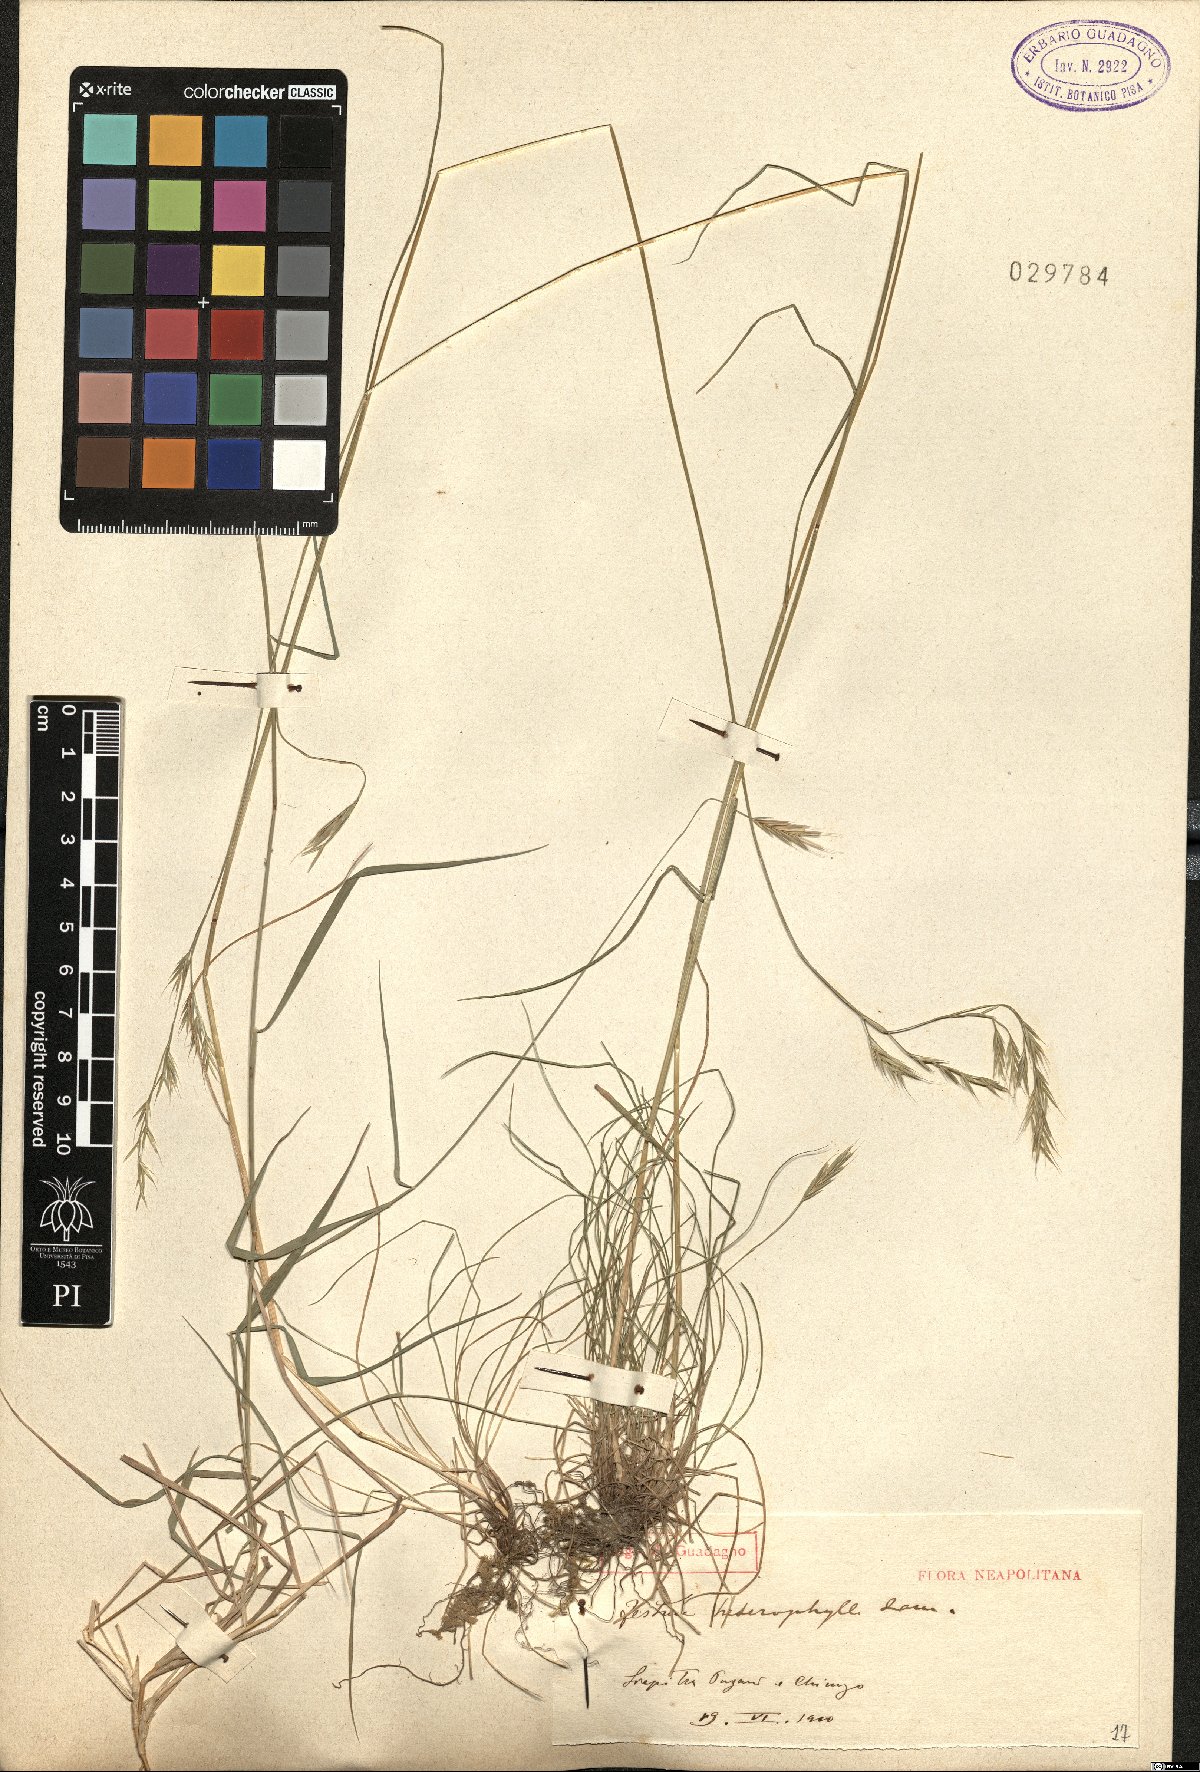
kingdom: Plantae
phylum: Tracheophyta
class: Liliopsida
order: Poales
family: Poaceae
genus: Festuca
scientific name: Festuca heterophylla
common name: Various-leaved fescue
